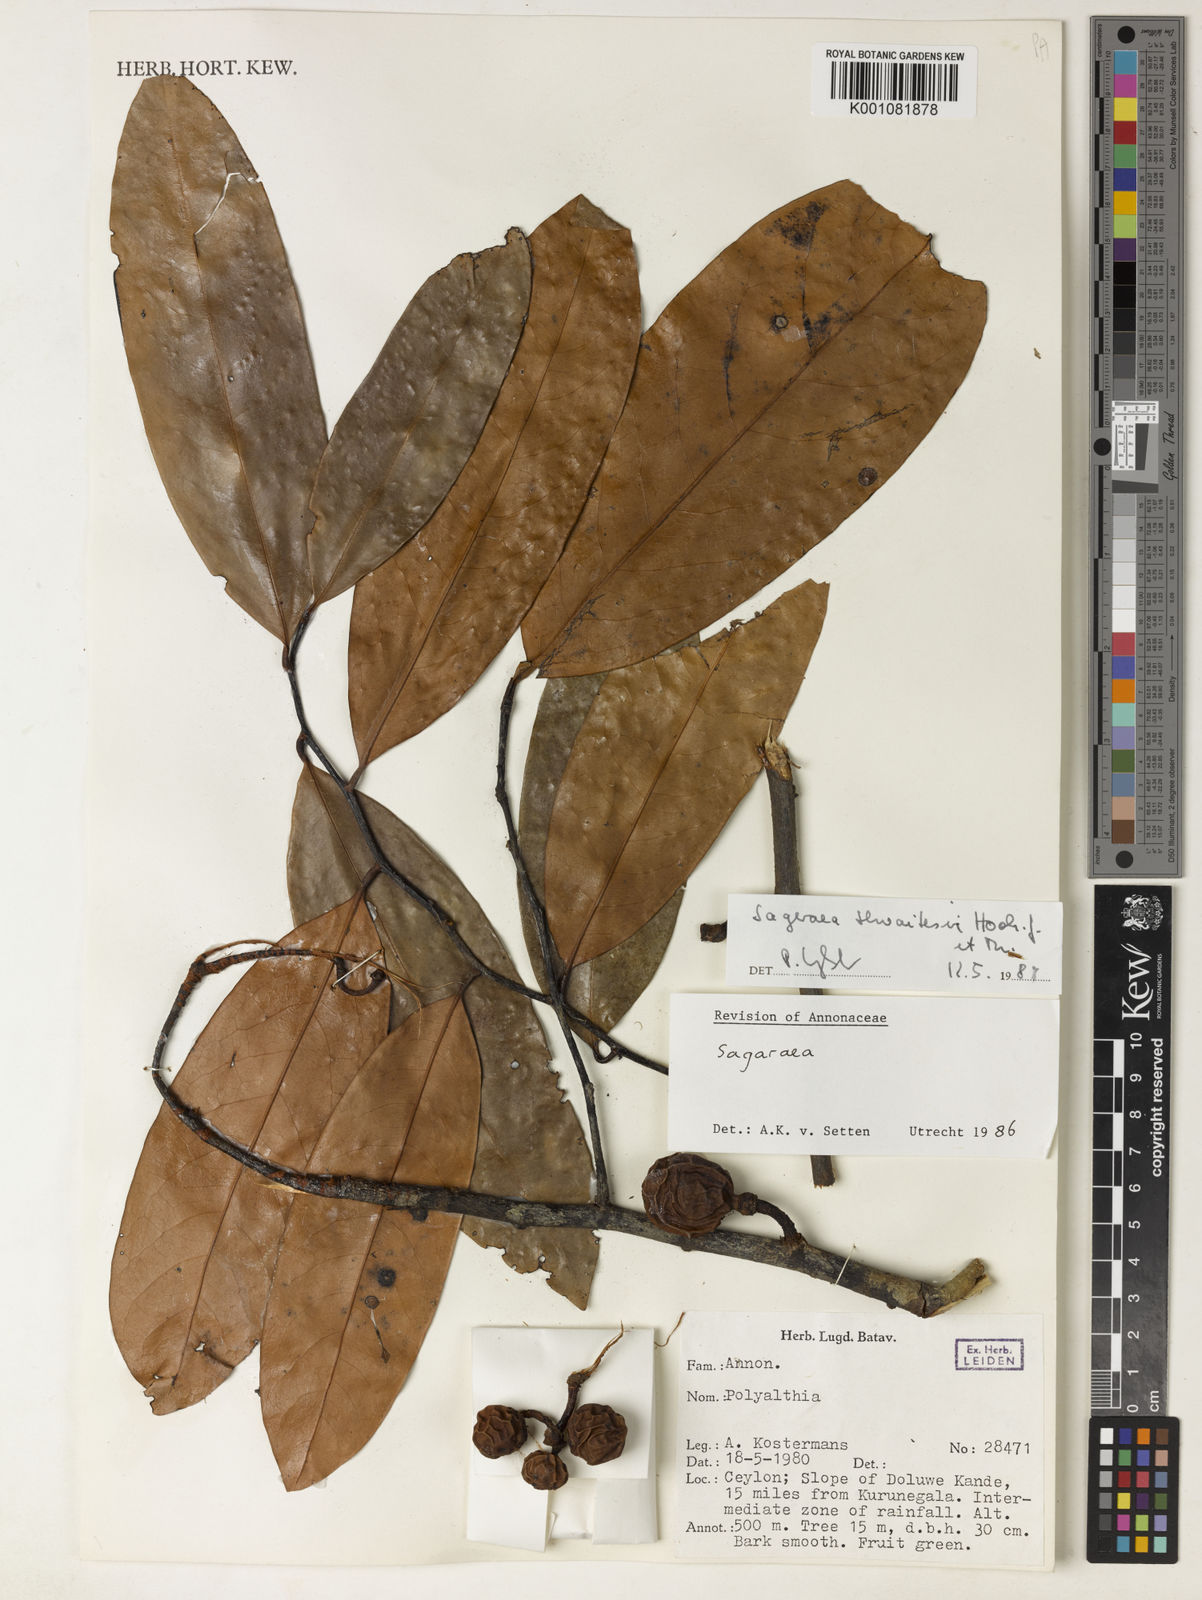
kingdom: Plantae
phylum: Tracheophyta
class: Magnoliopsida
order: Magnoliales
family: Annonaceae
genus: Sageraea
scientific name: Sageraea zeylanica
